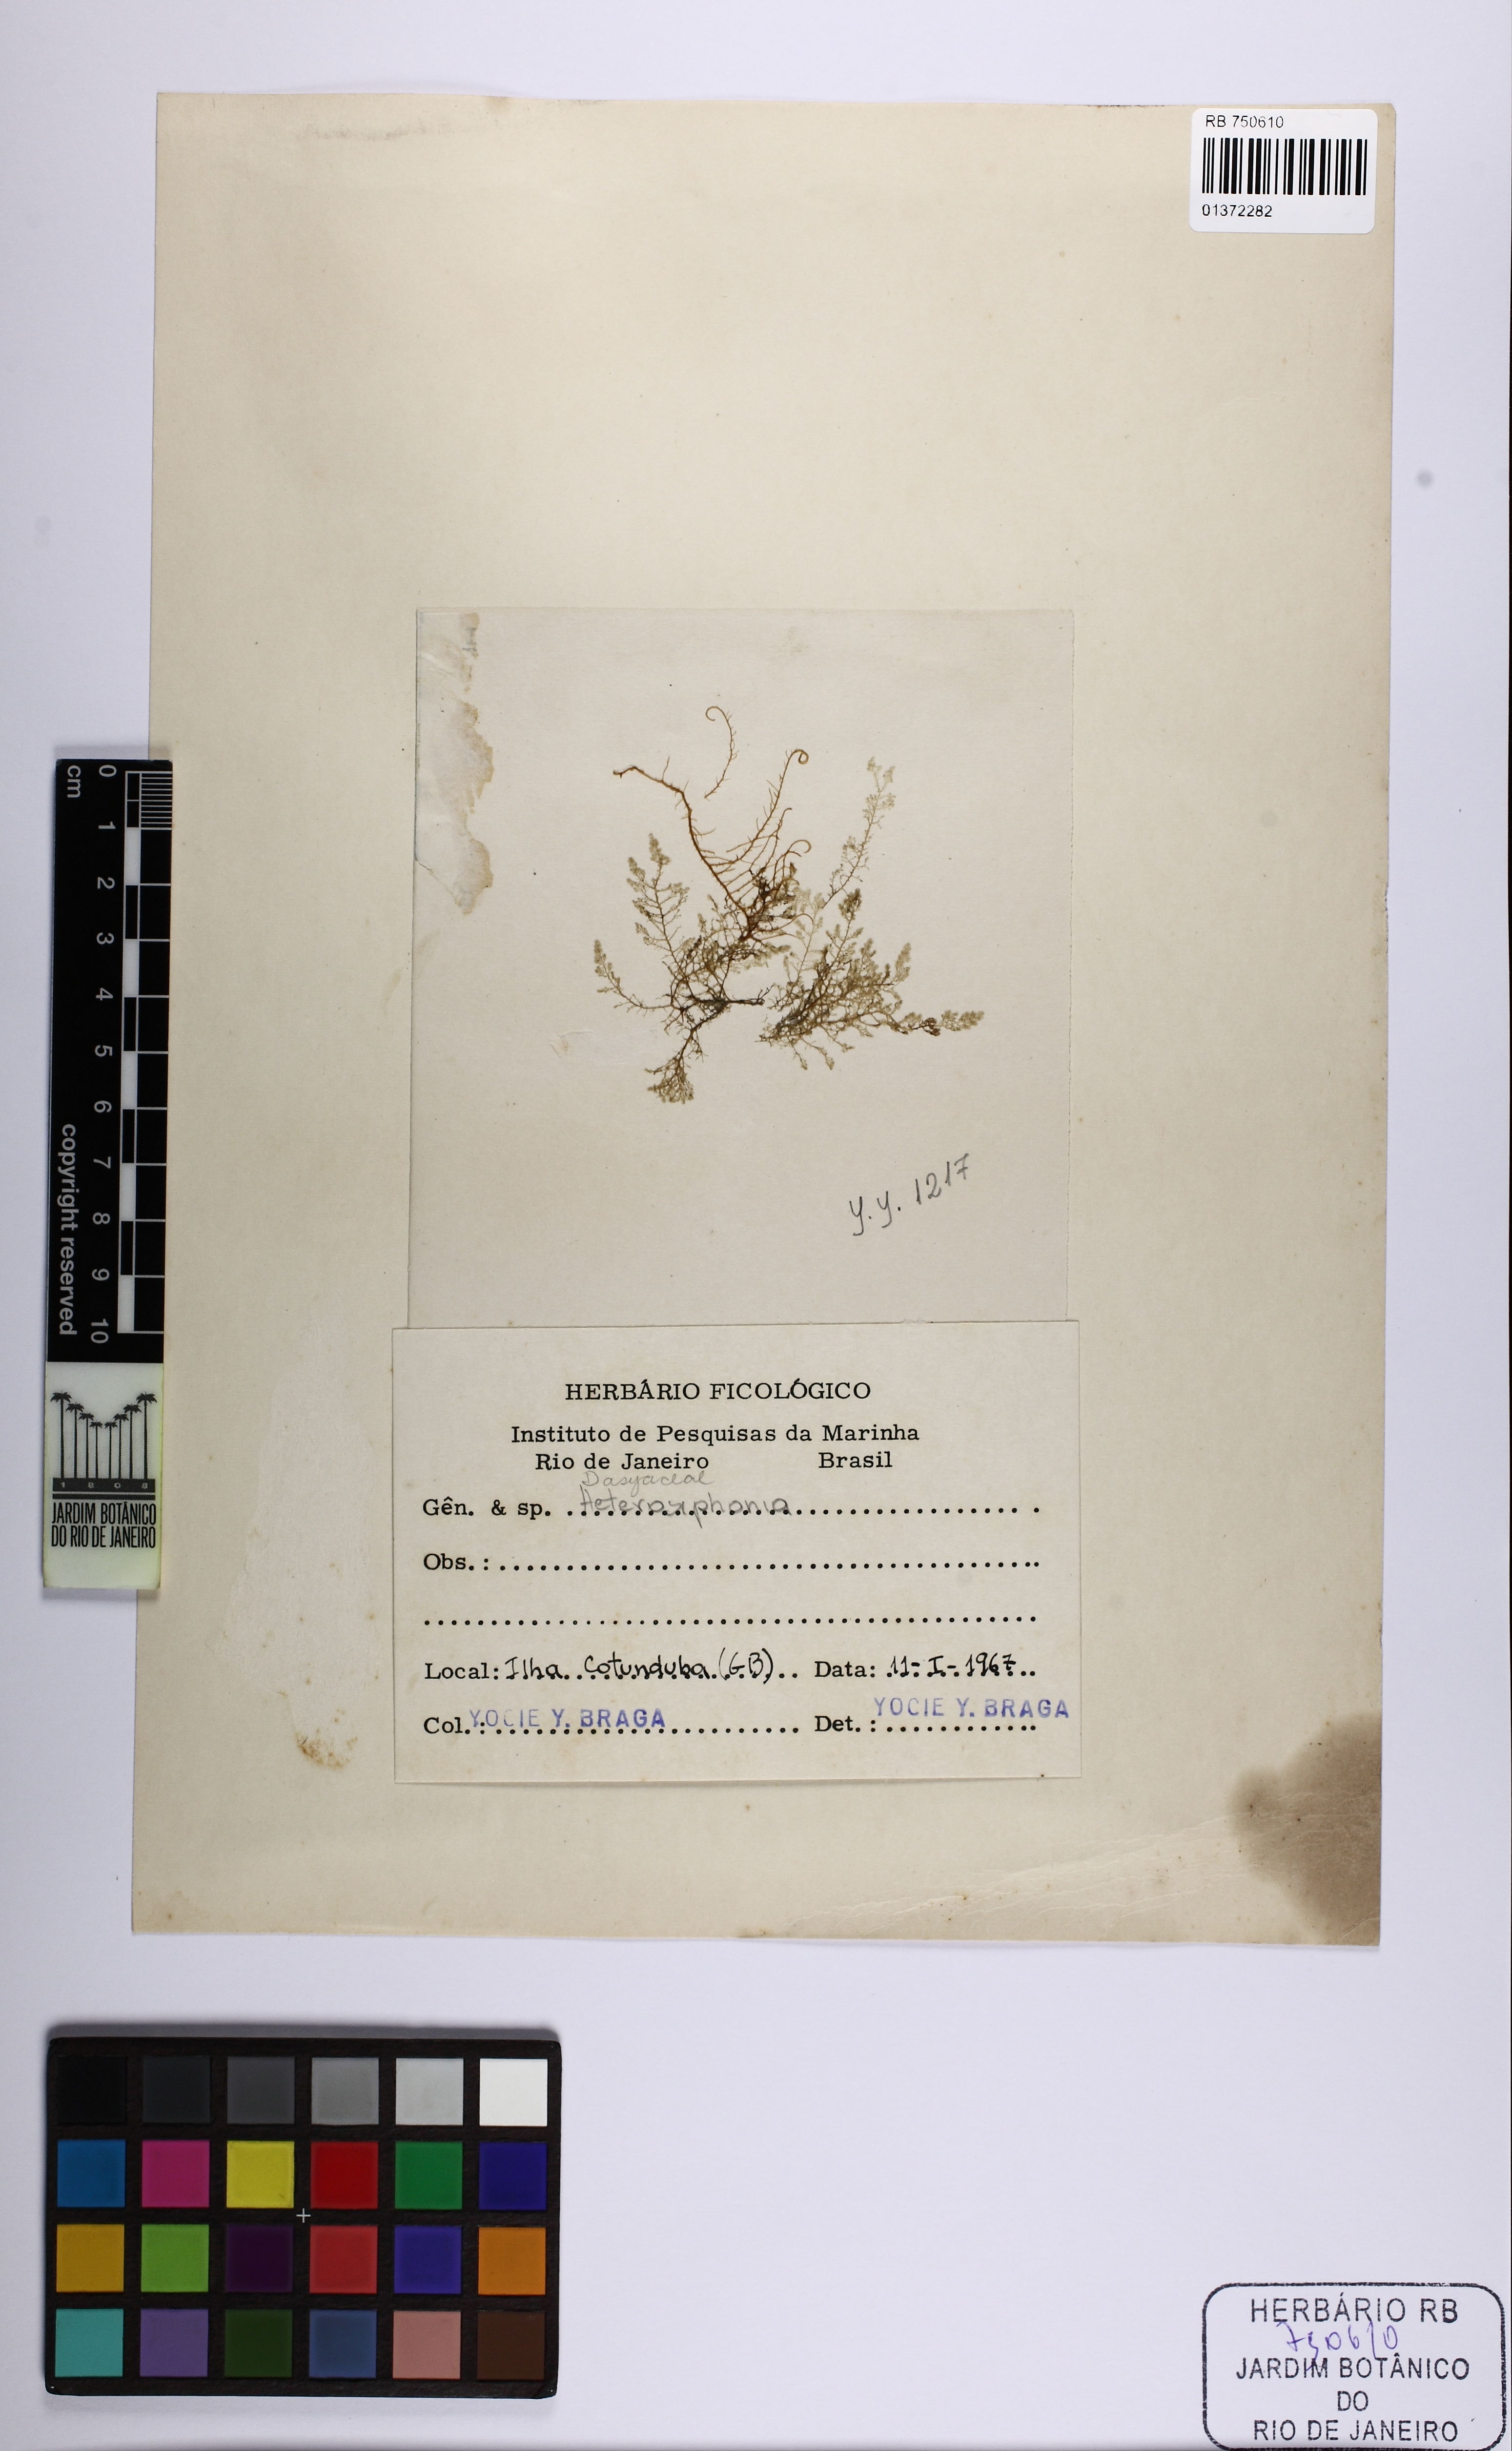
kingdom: Plantae
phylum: Rhodophyta
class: Florideophyceae
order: Ceramiales
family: Dasyaceae
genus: Heterosiphonia
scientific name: Heterosiphonia
